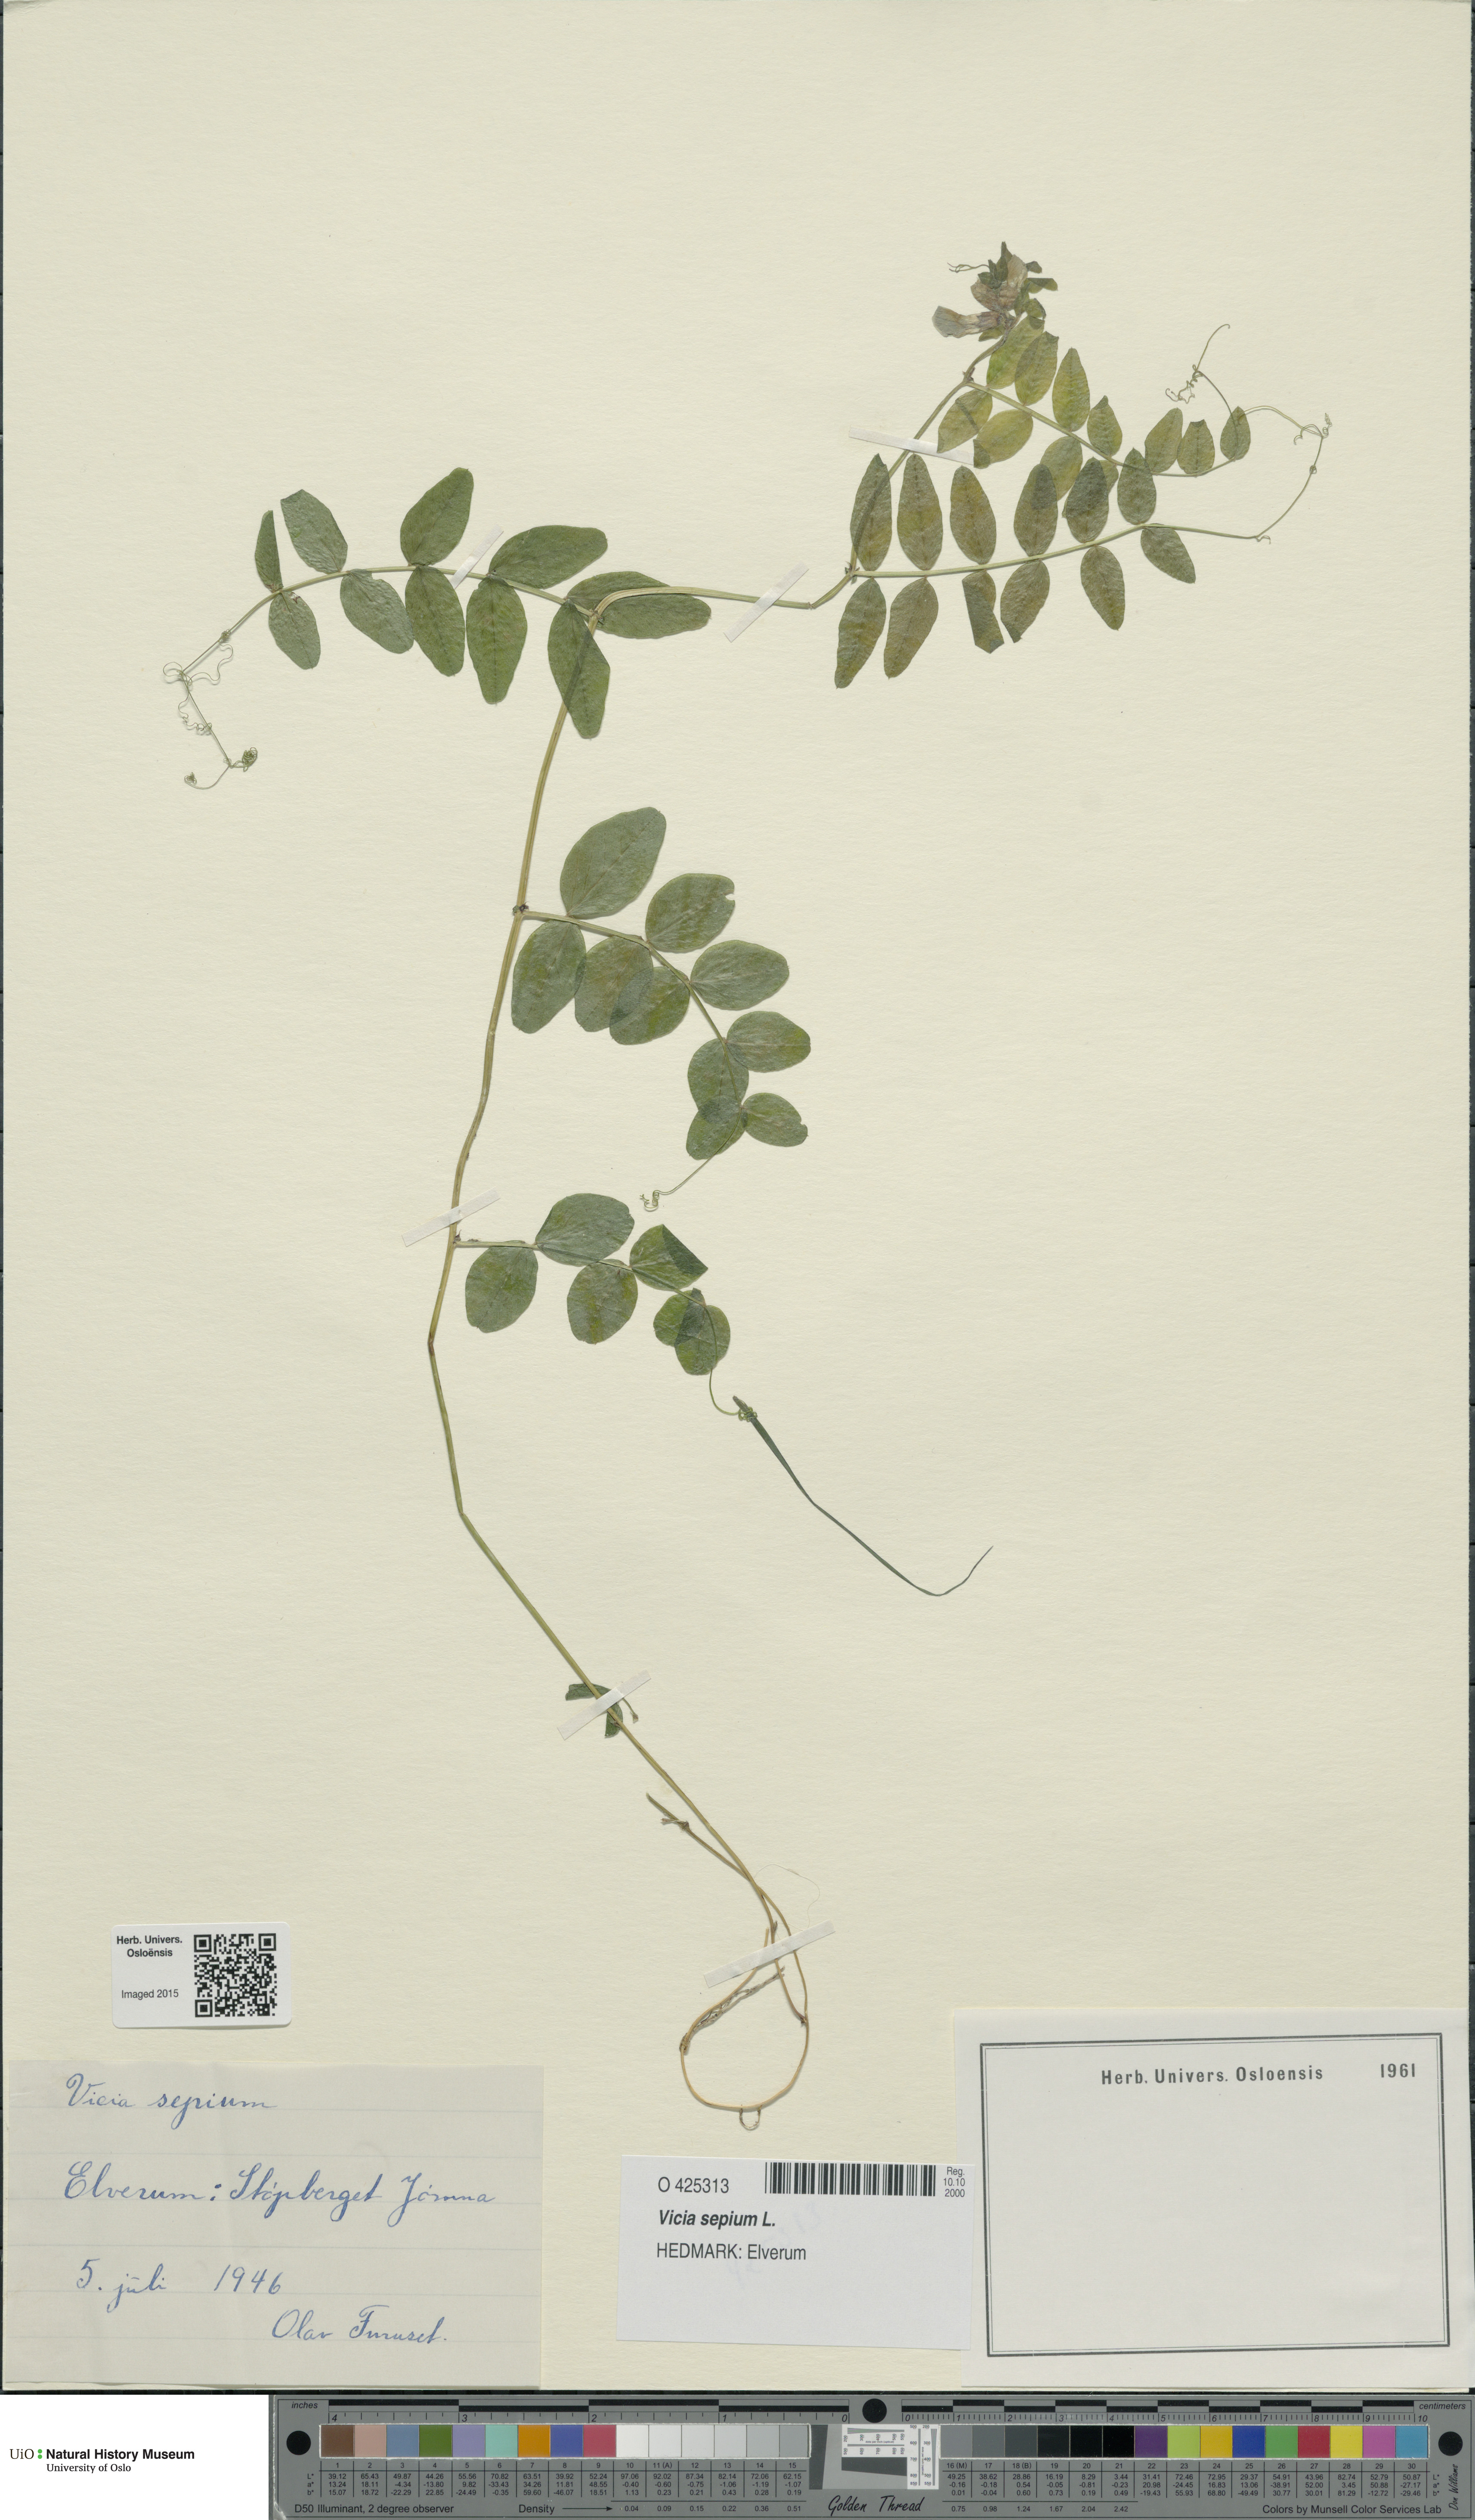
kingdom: Plantae
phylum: Tracheophyta
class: Magnoliopsida
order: Fabales
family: Fabaceae
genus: Vicia
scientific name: Vicia sepium
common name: Bush vetch
